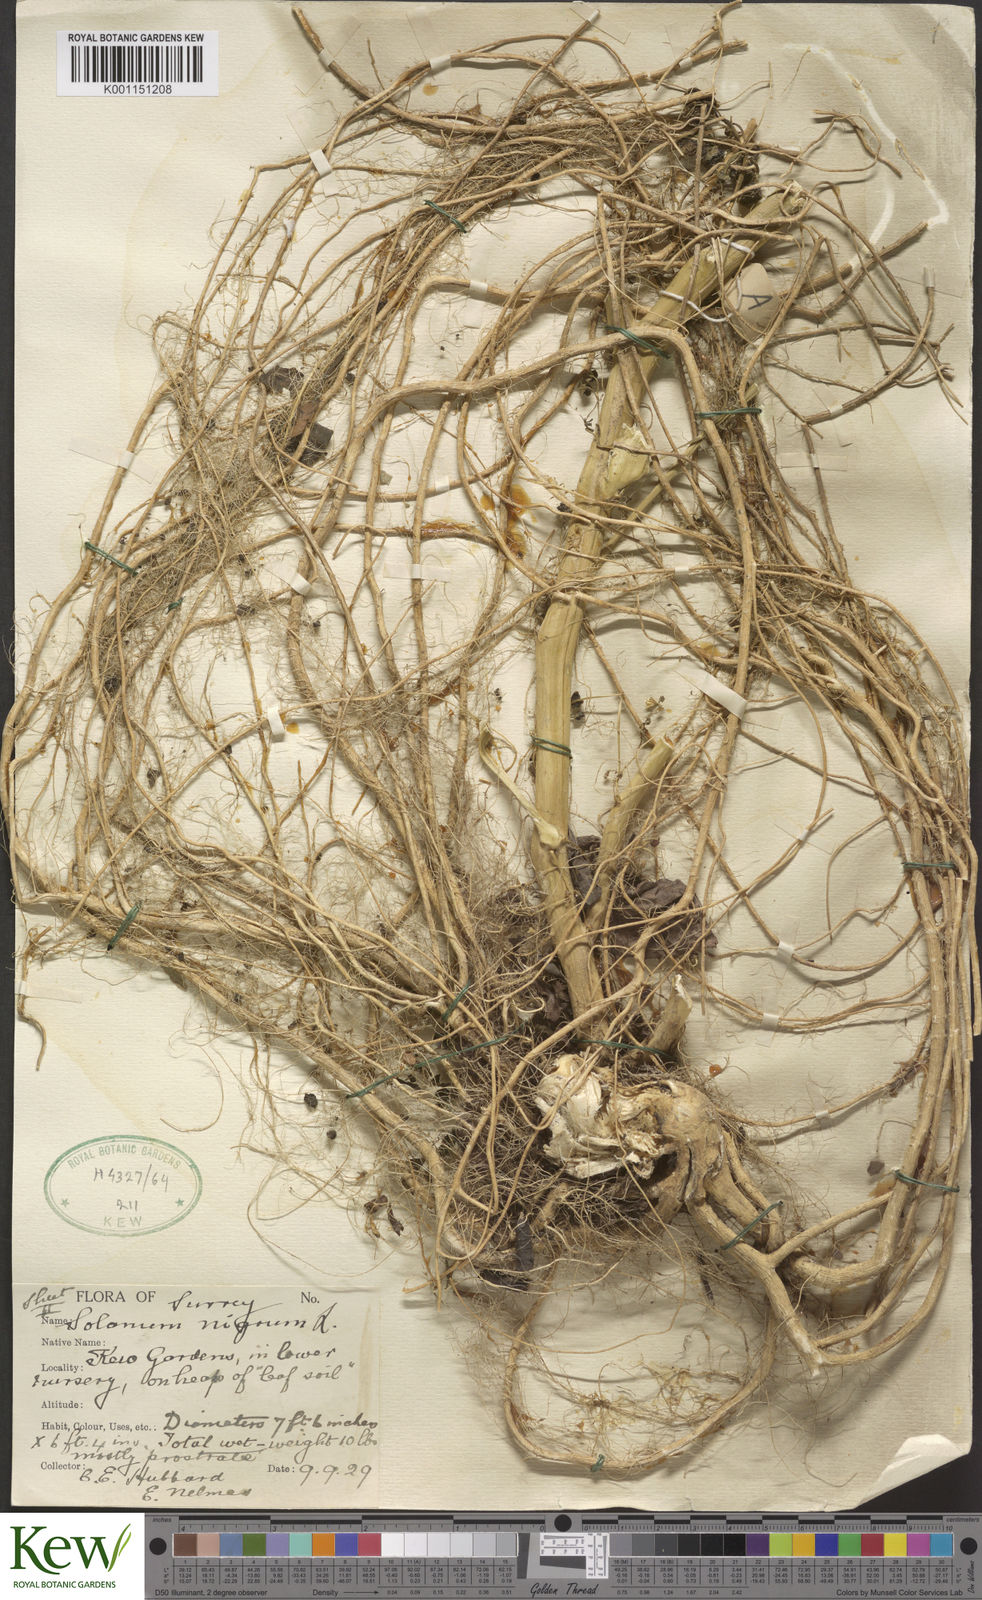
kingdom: Plantae
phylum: Tracheophyta
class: Magnoliopsida
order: Solanales
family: Solanaceae
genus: Solanum
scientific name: Solanum nigrum
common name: Black nightshade
